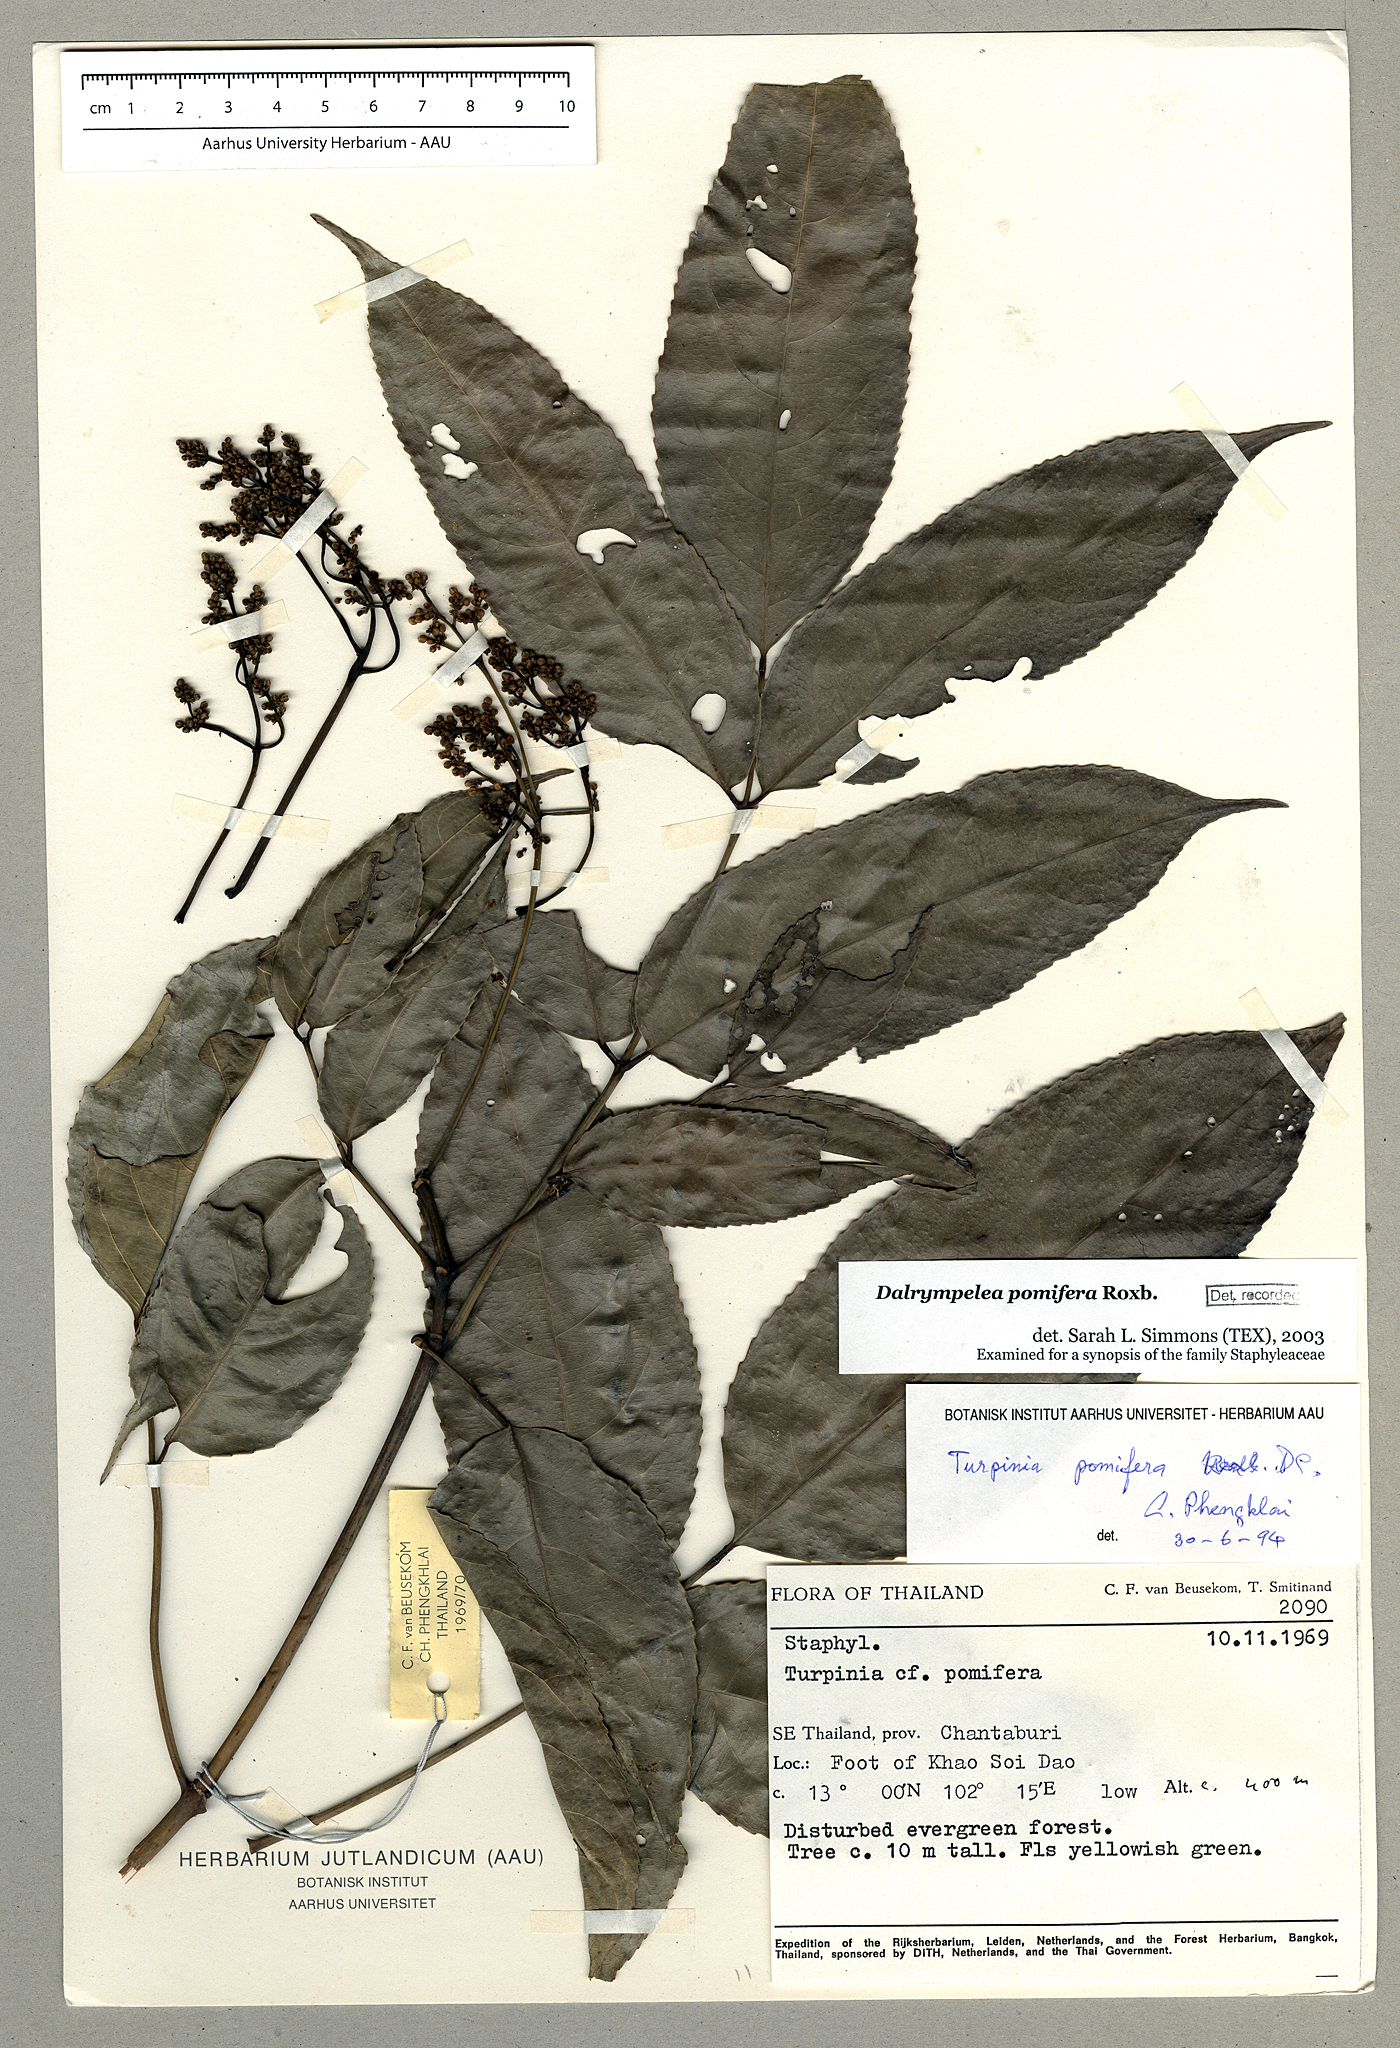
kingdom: Plantae
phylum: Tracheophyta
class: Magnoliopsida
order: Crossosomatales
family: Staphyleaceae
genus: Dalrympelea
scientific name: Dalrympelea pomifera
